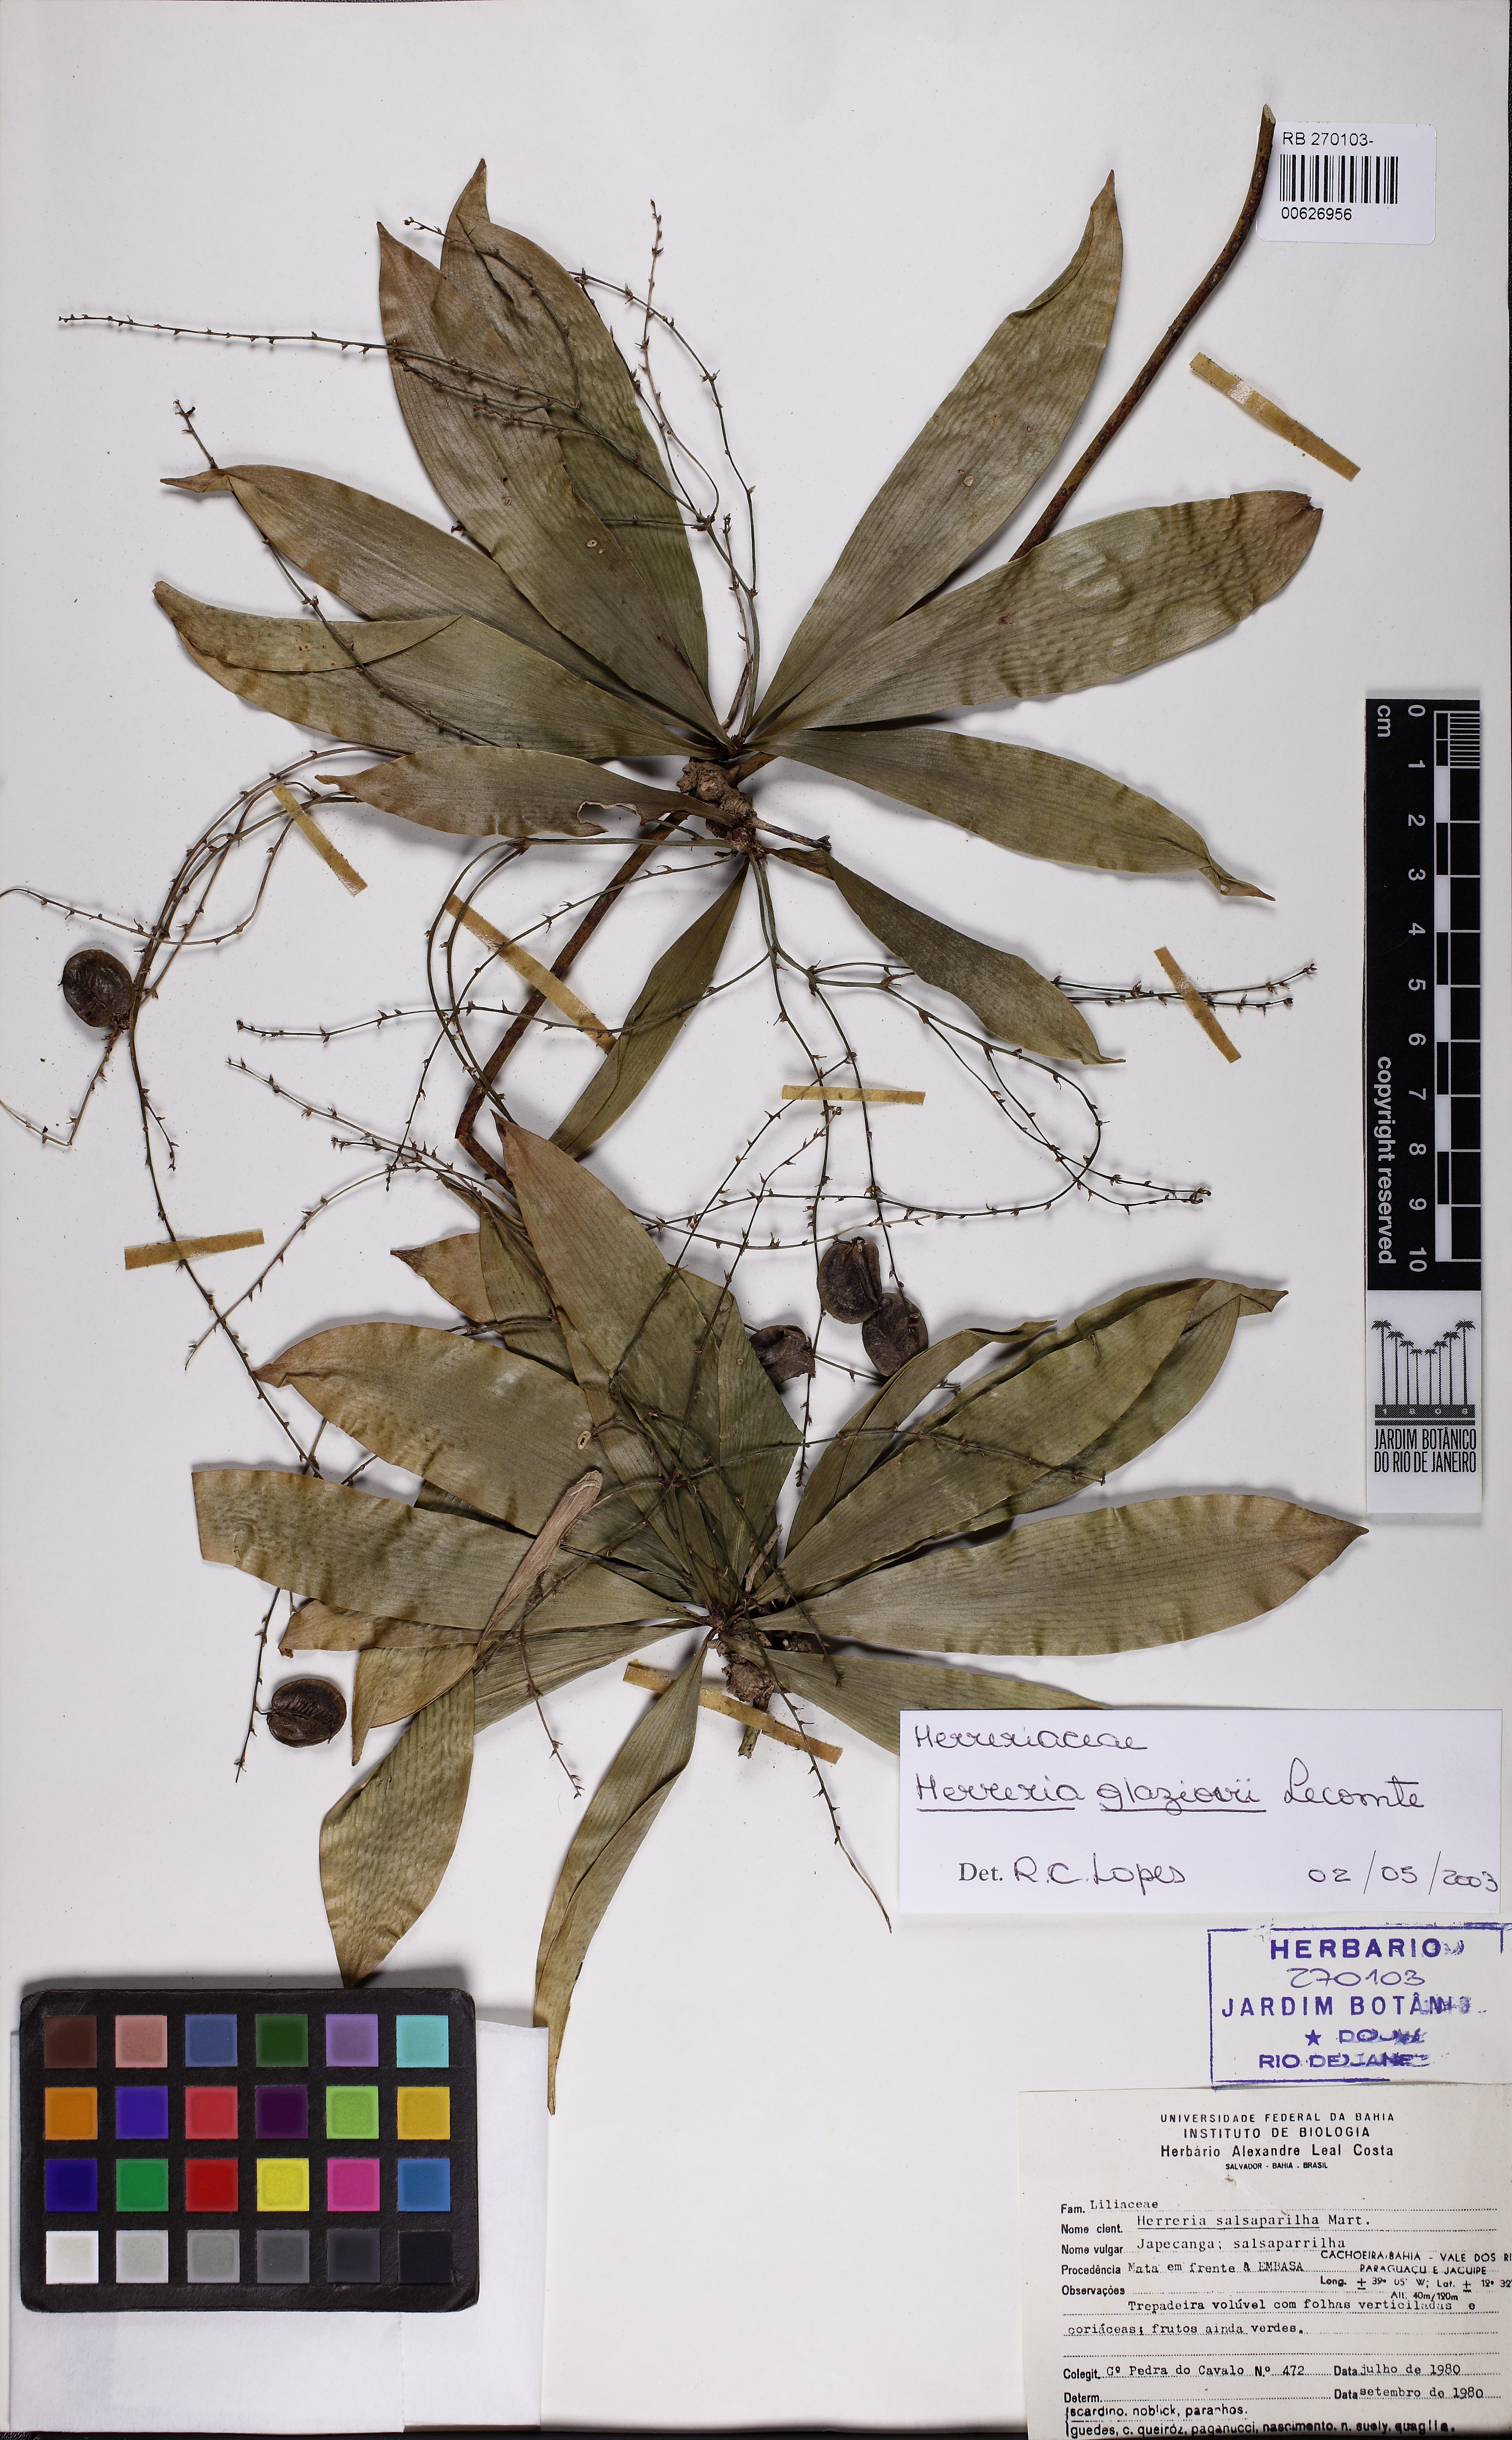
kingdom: Plantae
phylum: Tracheophyta
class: Liliopsida
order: Asparagales
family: Asparagaceae
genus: Herreria
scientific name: Herreria glaziovii
